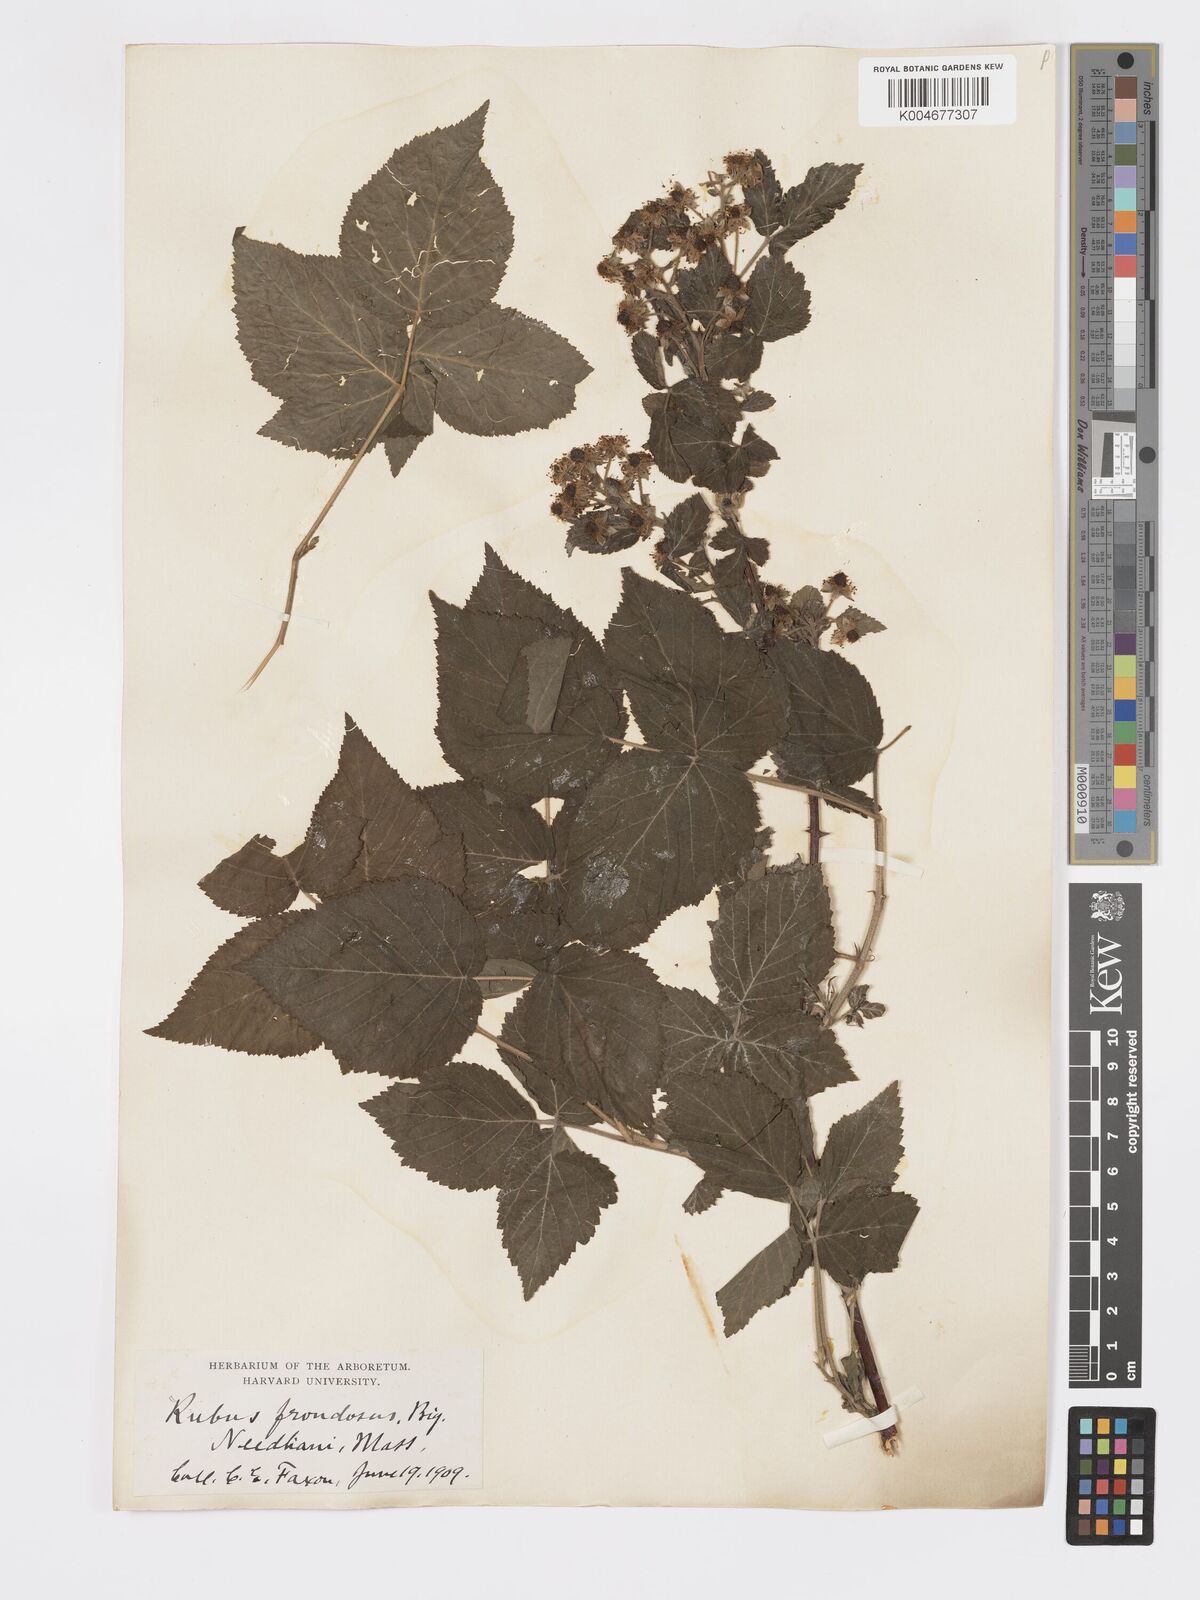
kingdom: Plantae
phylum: Tracheophyta
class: Magnoliopsida
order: Rosales
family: Rosaceae
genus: Rubus
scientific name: Rubus frondosus
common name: Yankee blackberry
